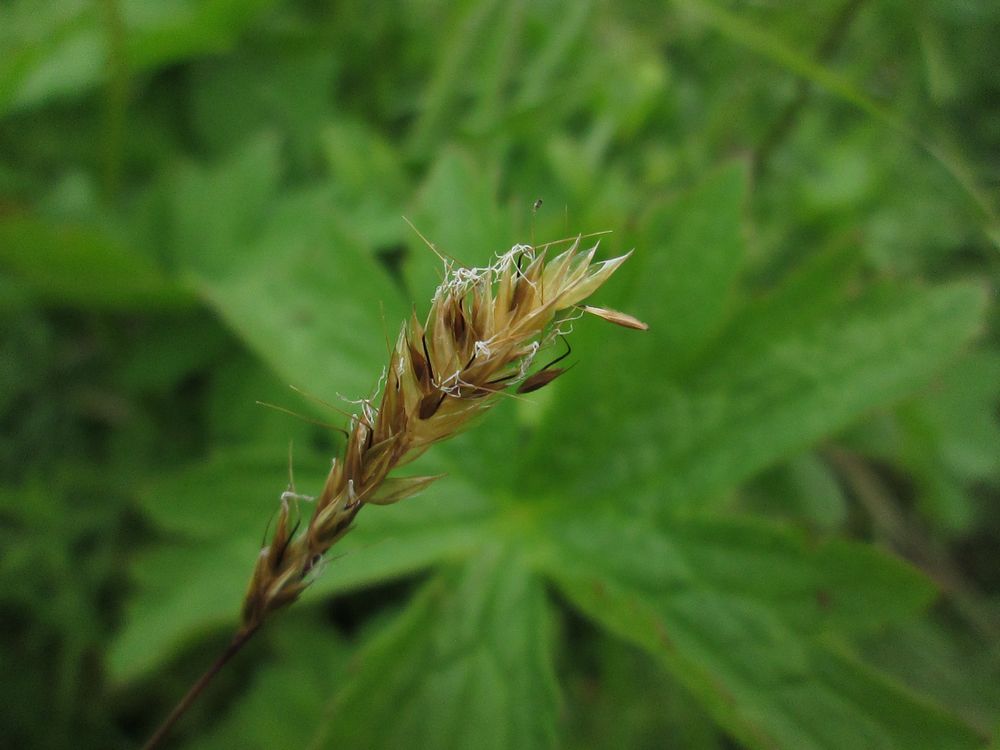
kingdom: Plantae
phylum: Tracheophyta
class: Liliopsida
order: Poales
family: Poaceae
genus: Anthoxanthum
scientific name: Anthoxanthum nipponicum
